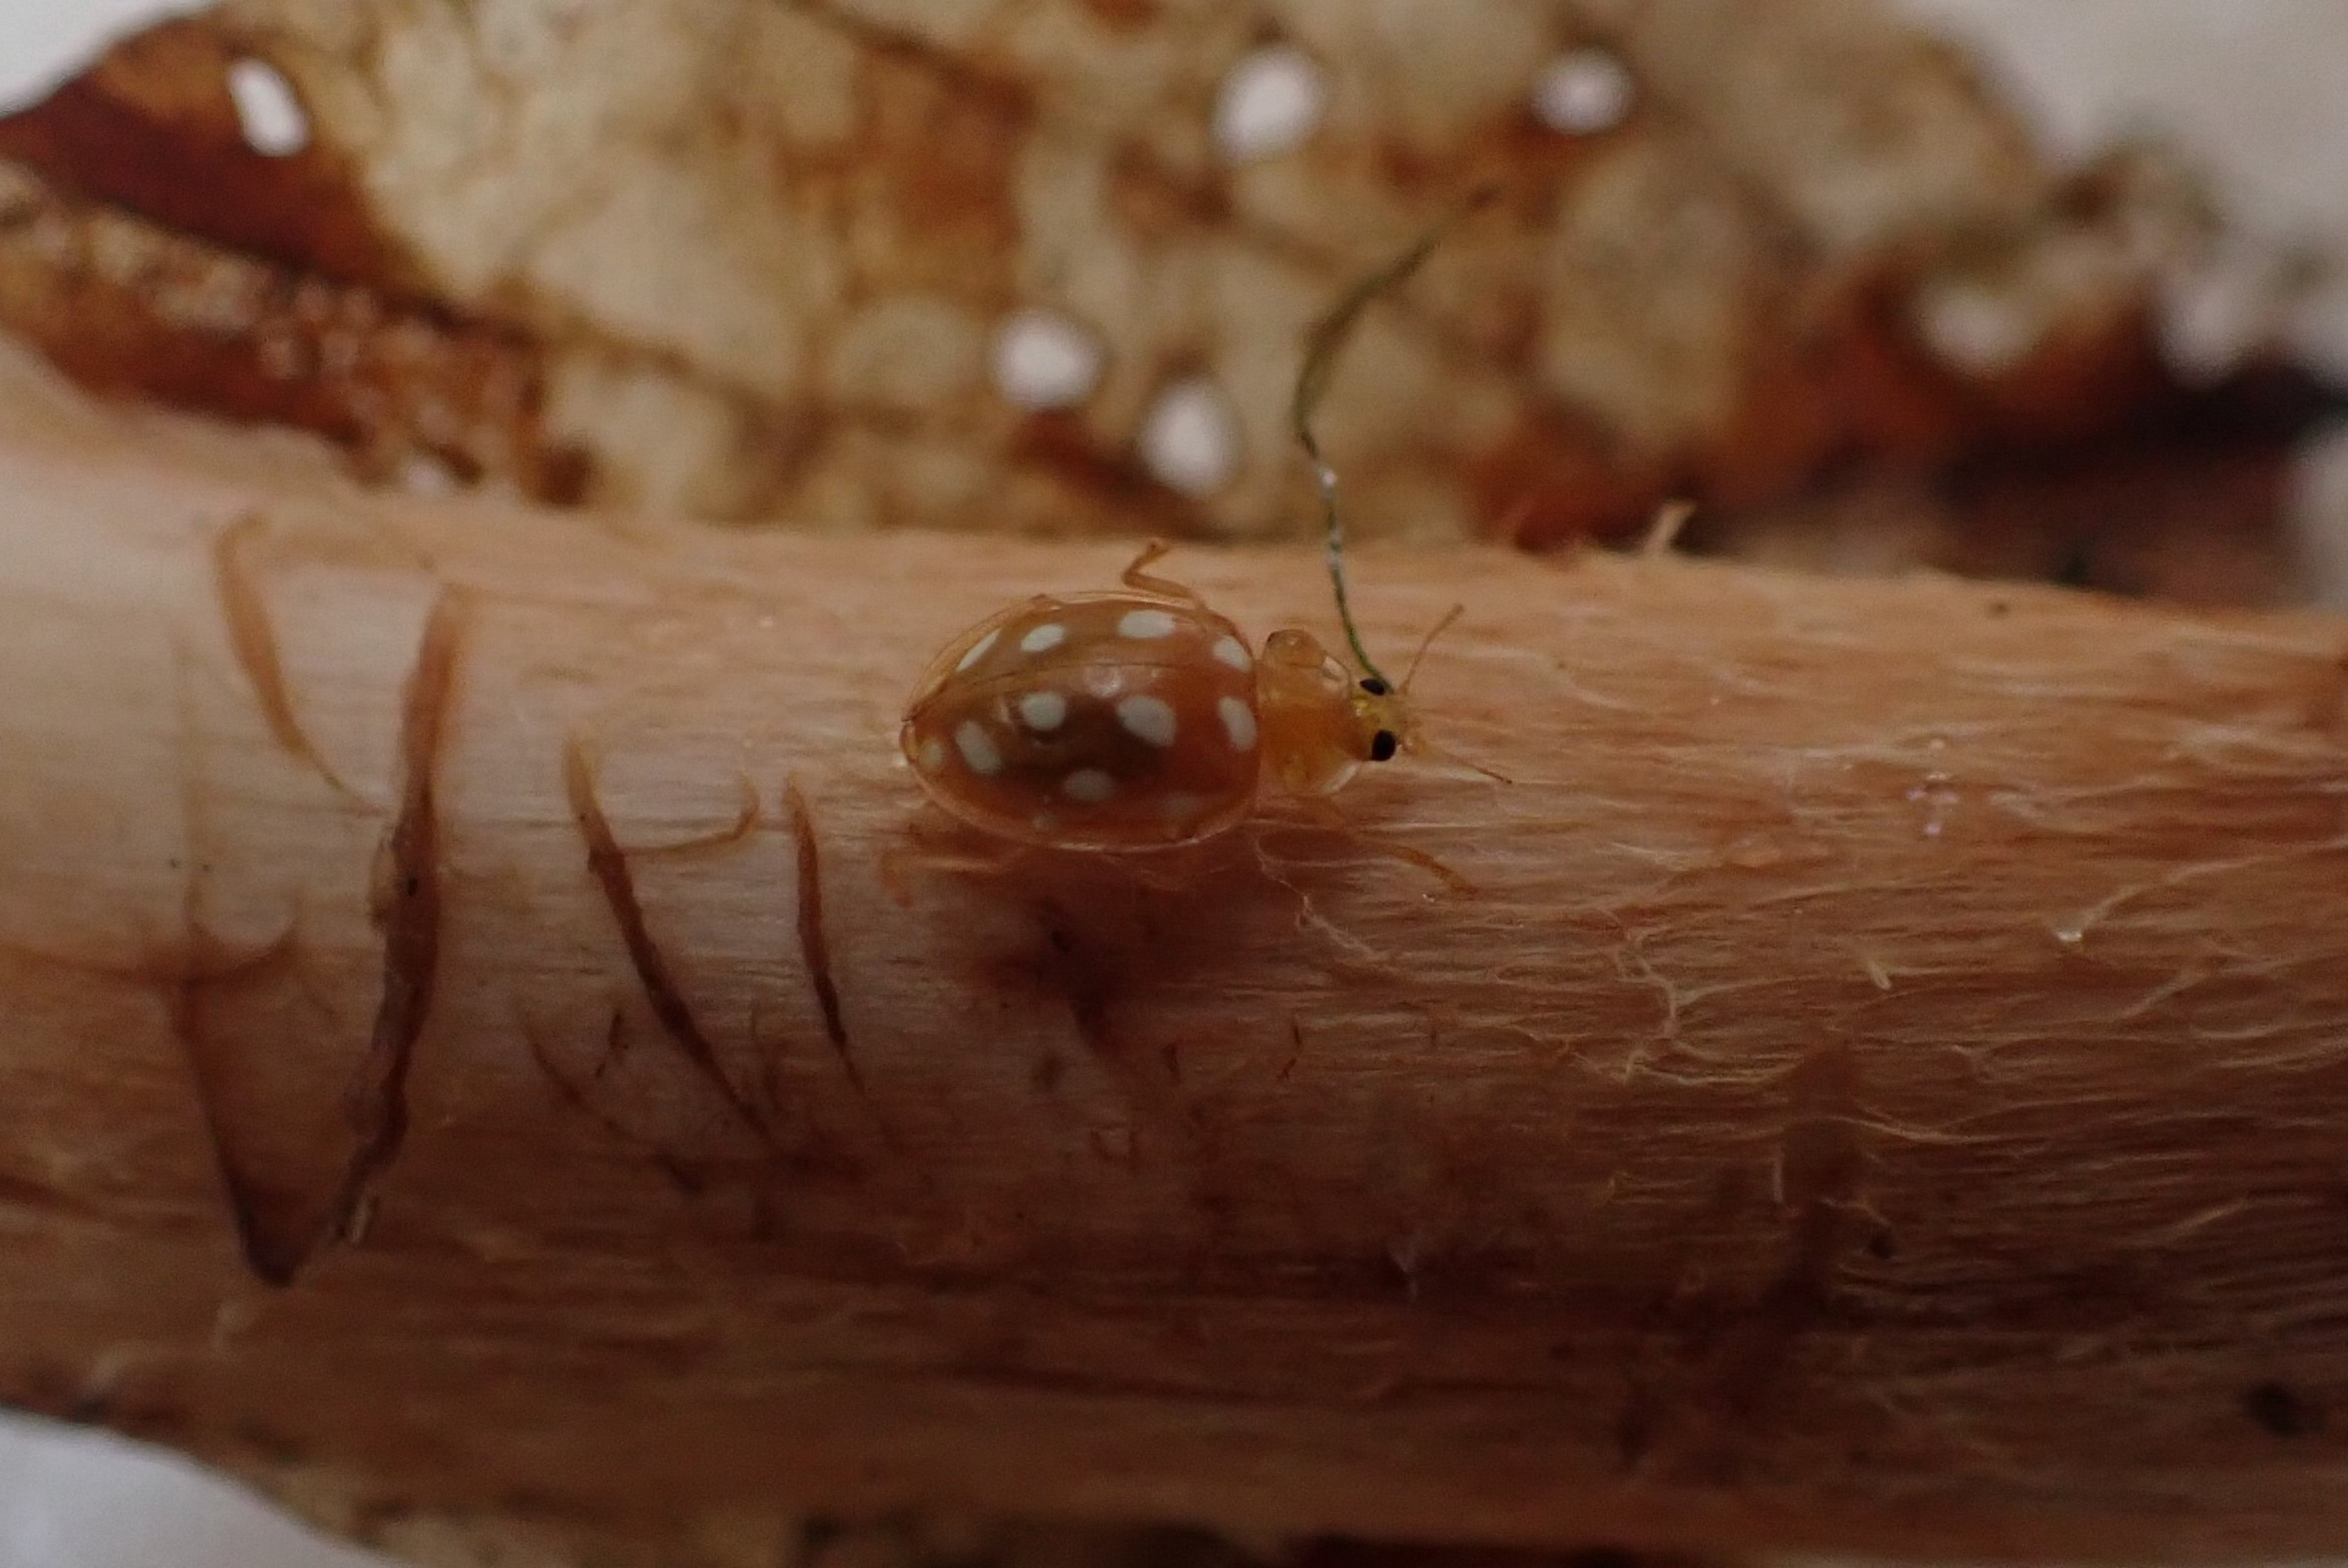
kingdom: Animalia
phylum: Arthropoda
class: Insecta
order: Coleoptera
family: Coccinellidae
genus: Halyzia
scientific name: Halyzia sedecimguttata
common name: Sekstenplettet mariehøne
